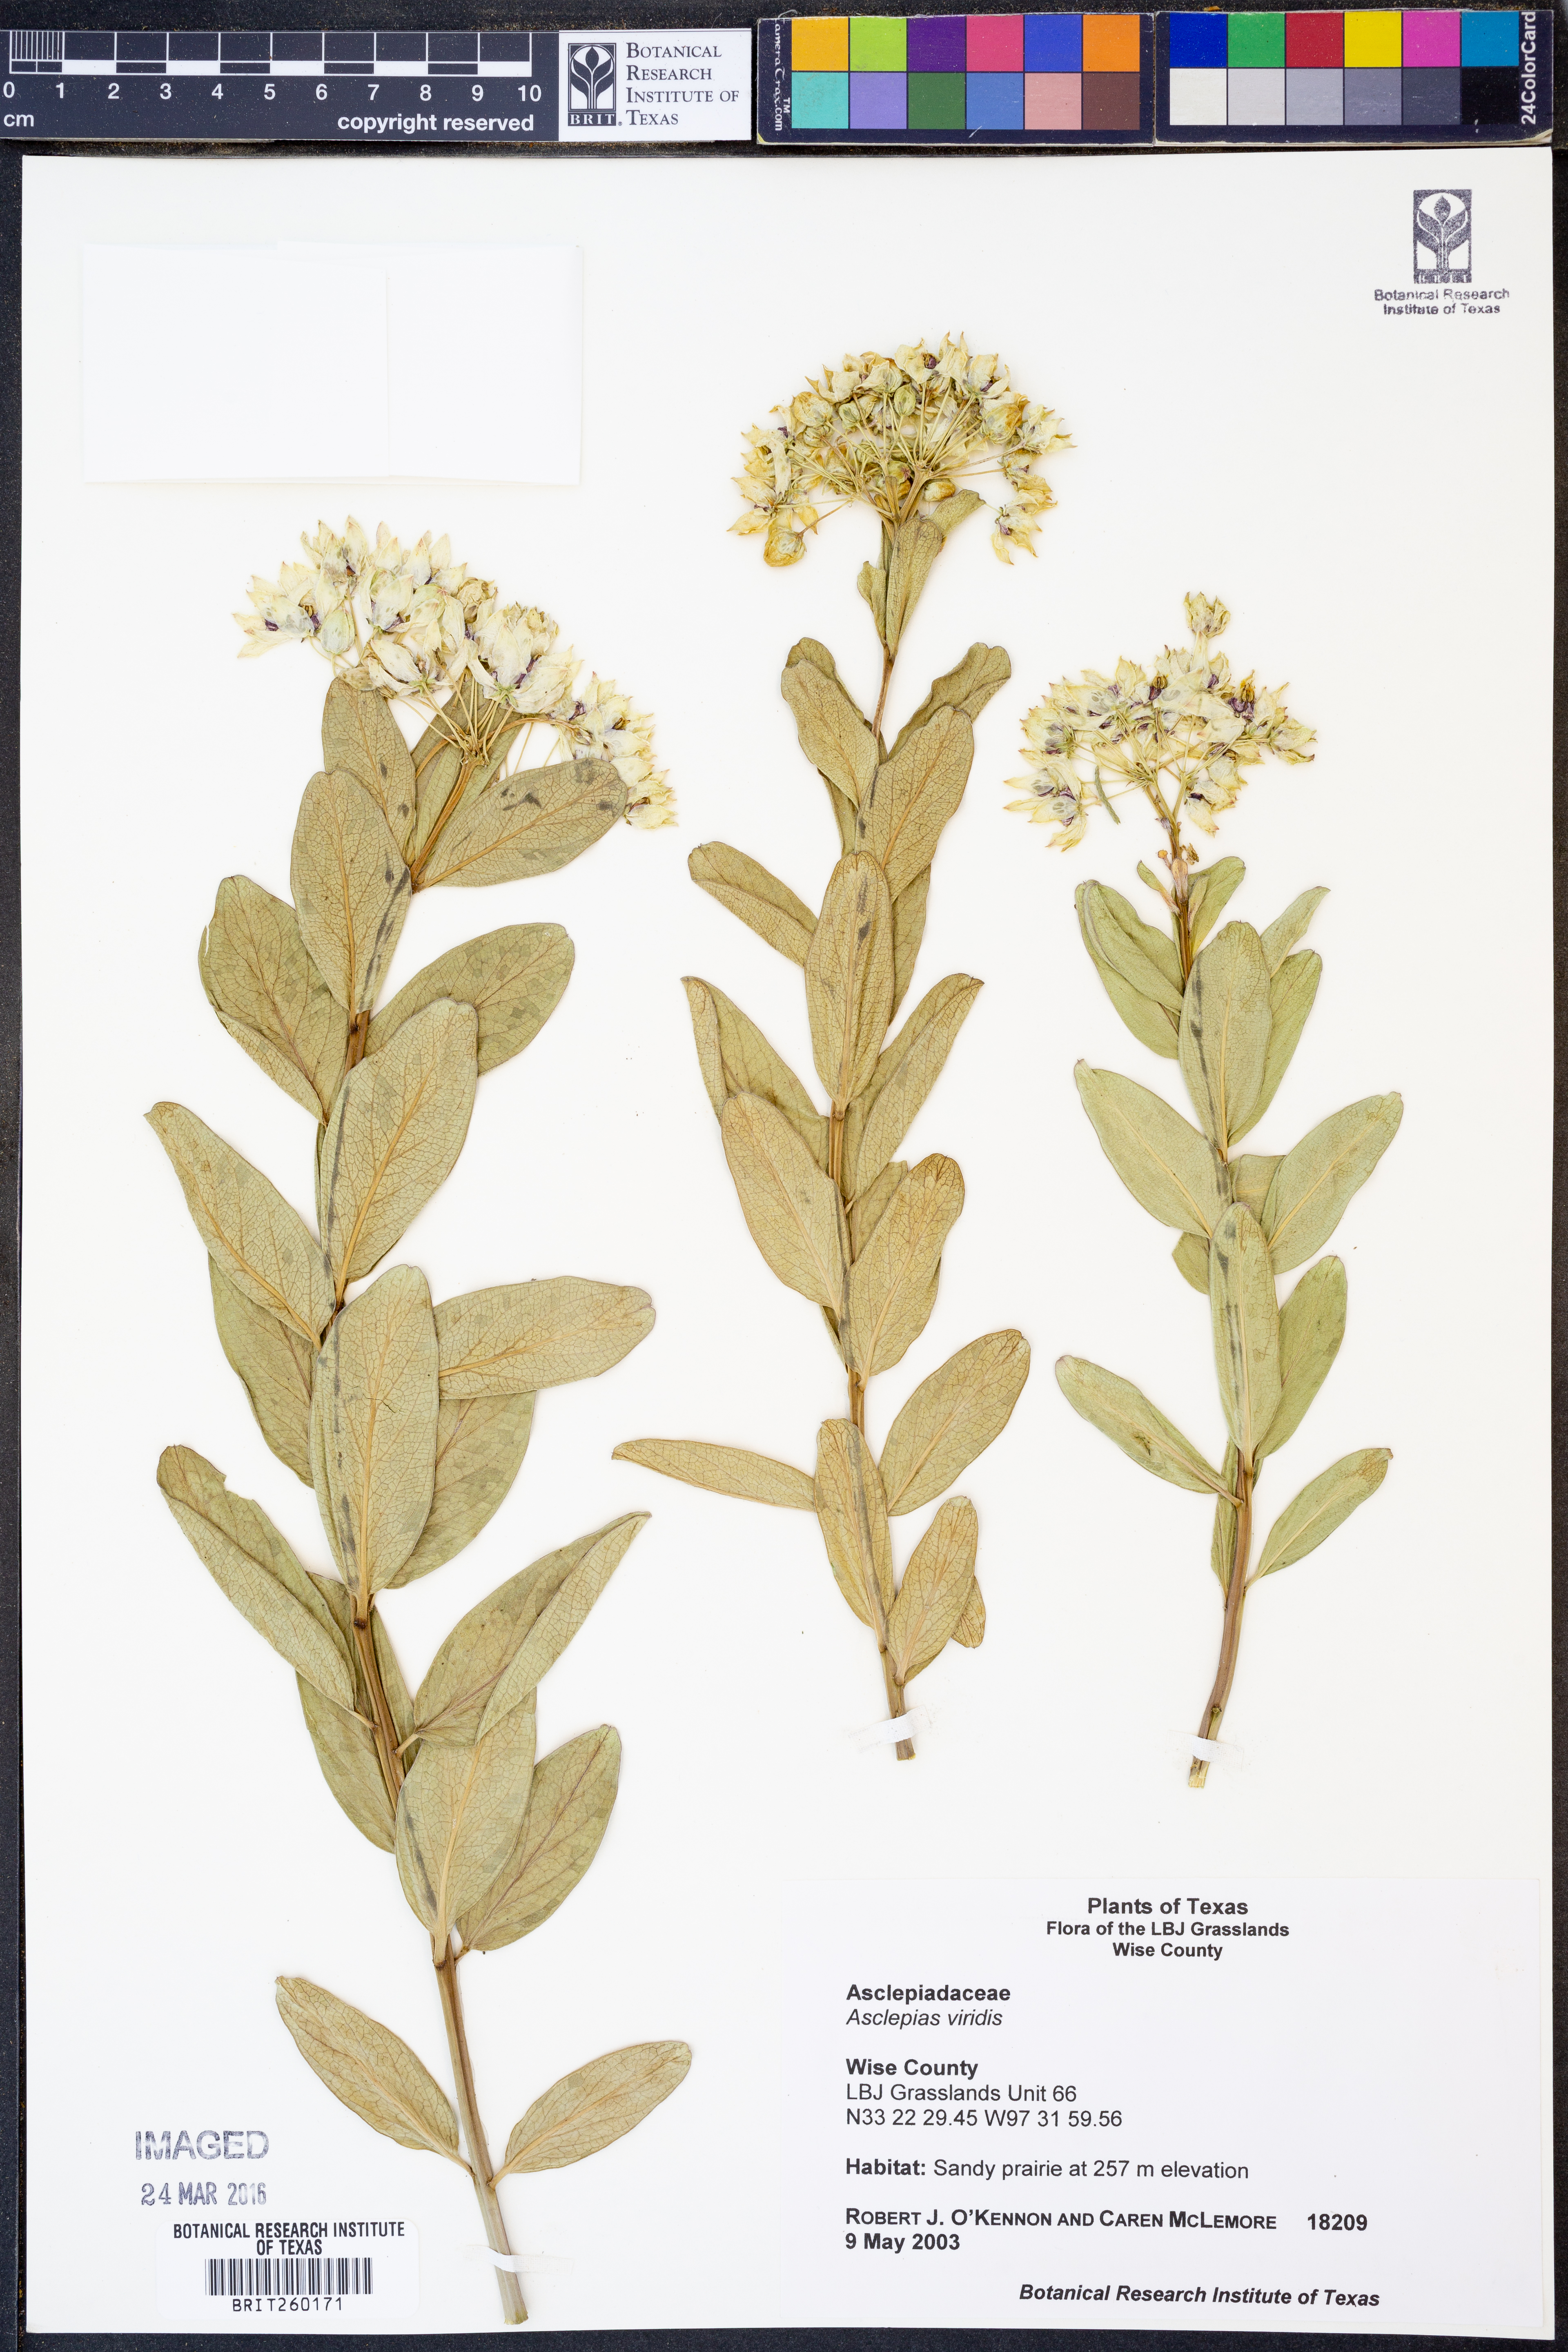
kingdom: Plantae
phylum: Tracheophyta
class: Magnoliopsida
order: Gentianales
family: Apocynaceae
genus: Asclepias
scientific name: Asclepias viridis
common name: Antelope-horns
